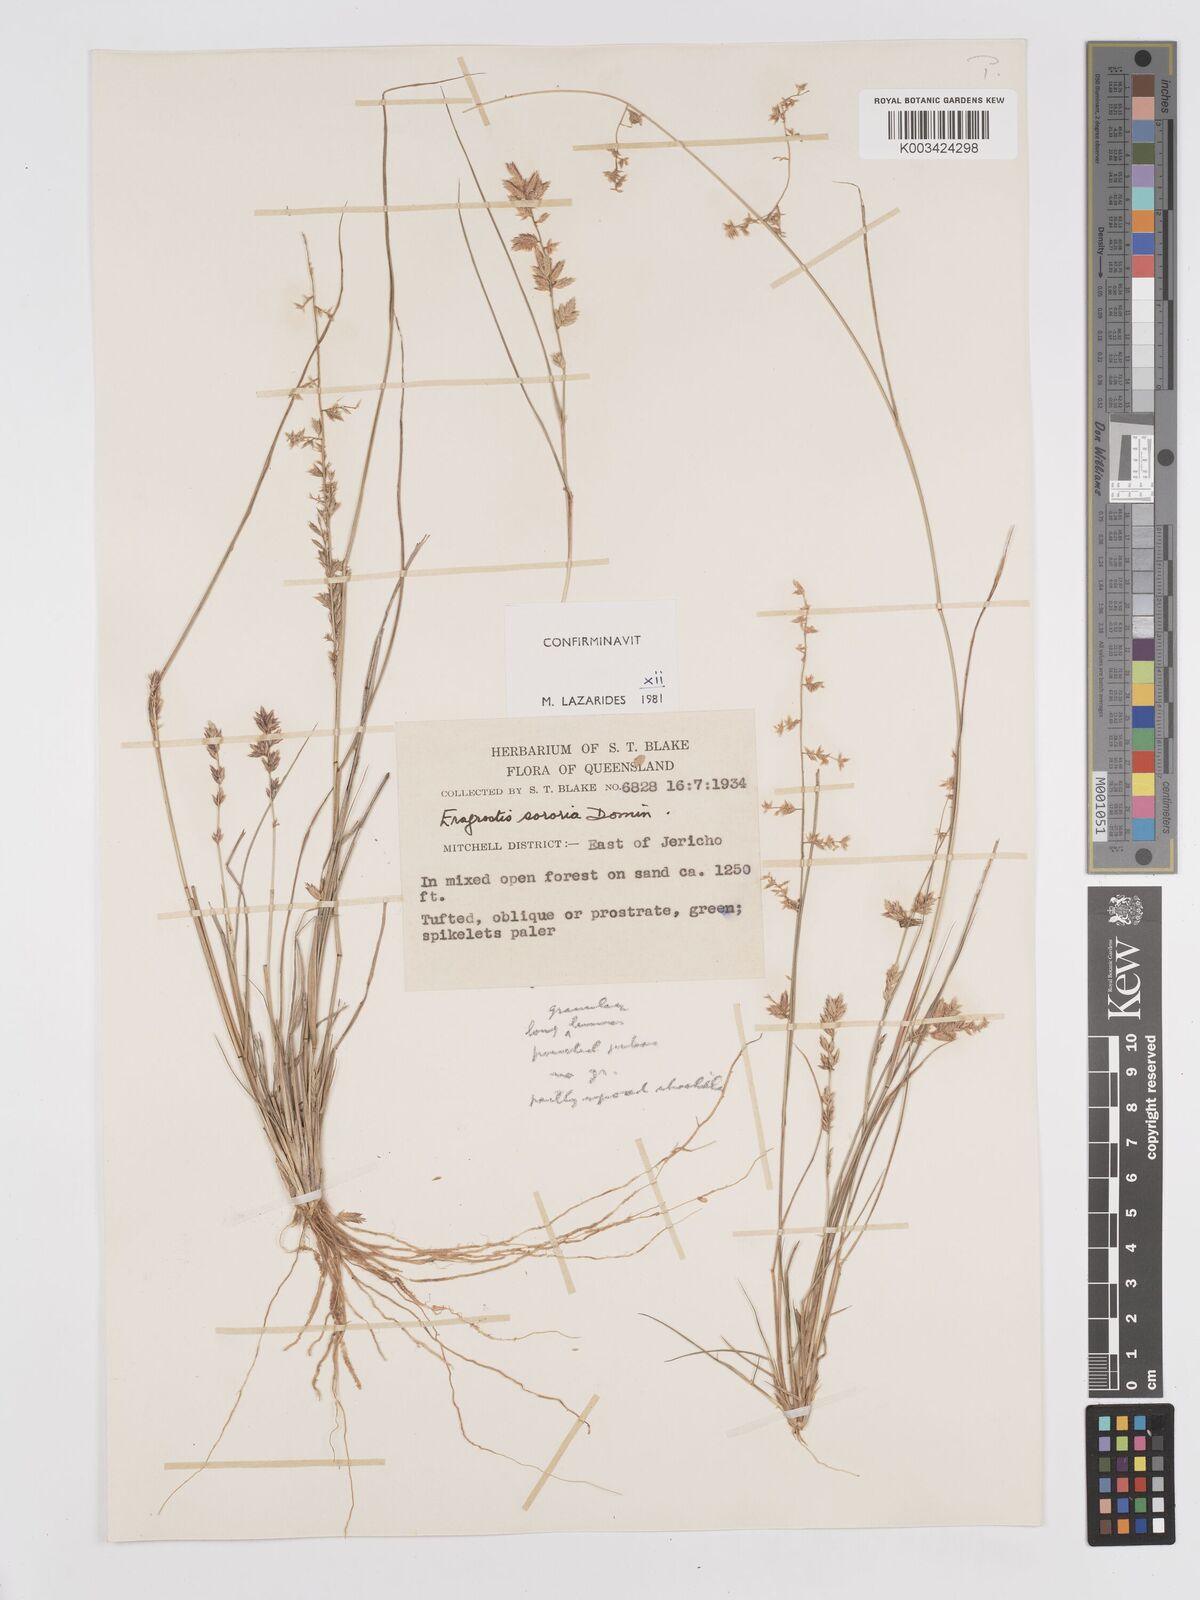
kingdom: Plantae
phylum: Tracheophyta
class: Liliopsida
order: Poales
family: Poaceae
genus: Eragrostis
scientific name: Eragrostis sororia
